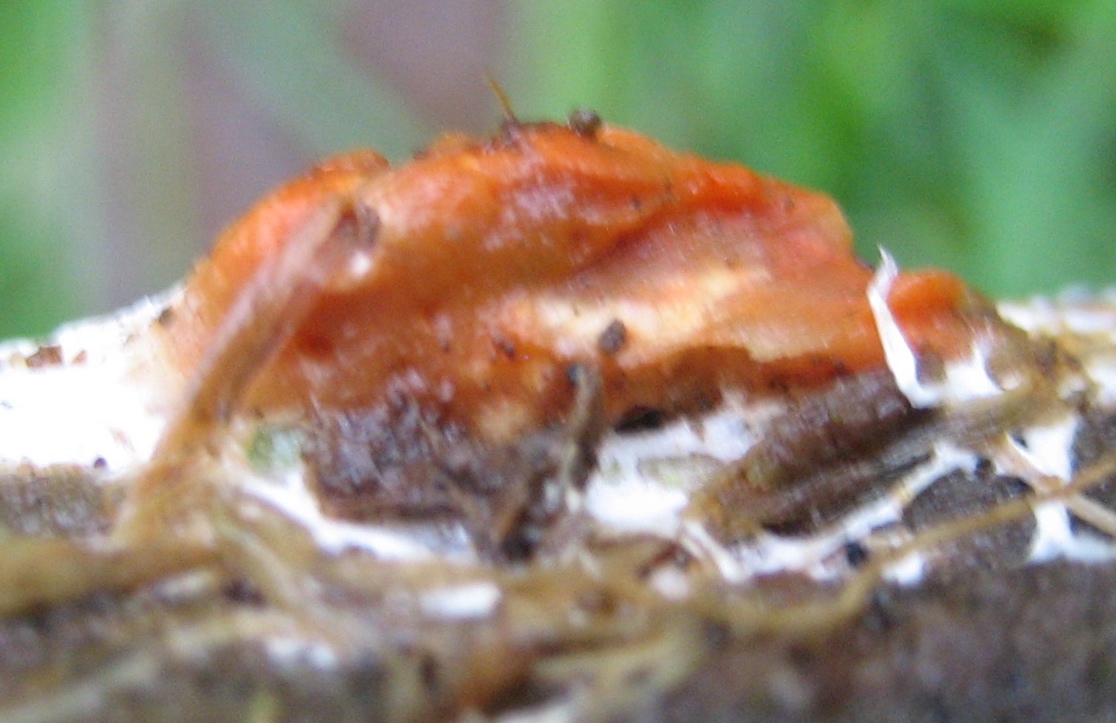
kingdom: Fungi
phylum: Basidiomycota
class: Agaricomycetes
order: Polyporales
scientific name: Polyporales
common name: poresvampordenen
